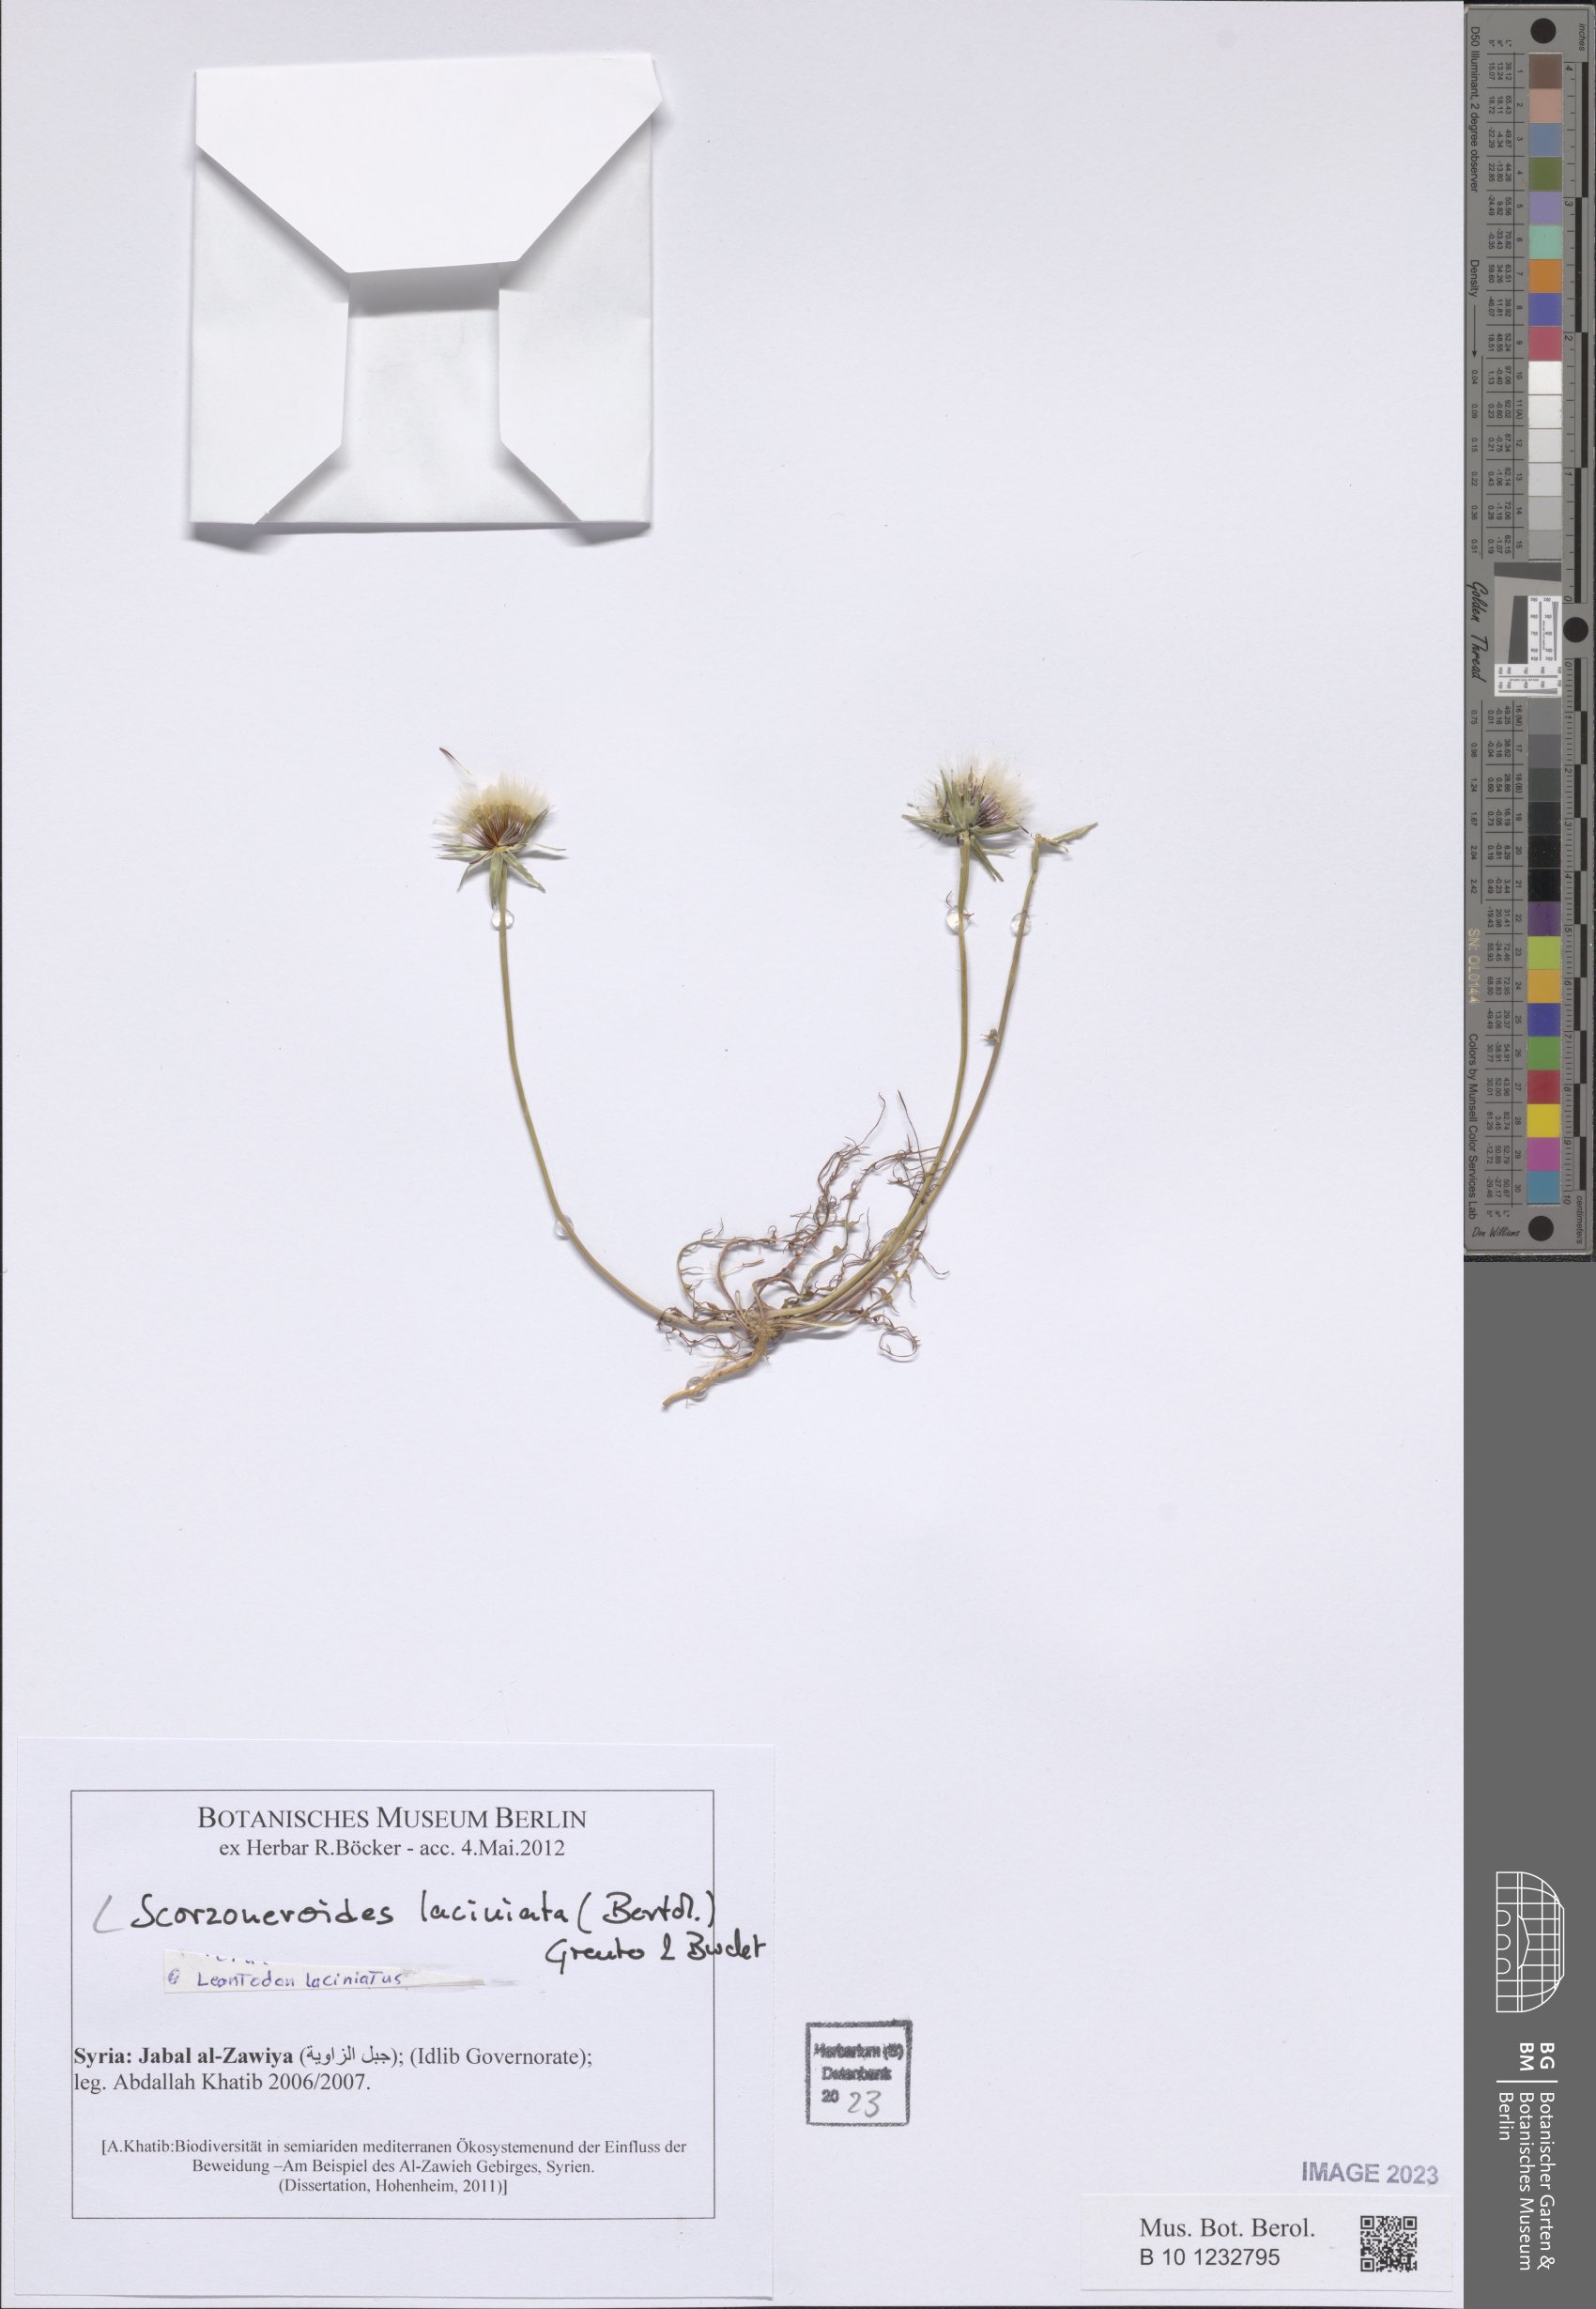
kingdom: Plantae
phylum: Tracheophyta
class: Magnoliopsida
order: Asterales
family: Asteraceae
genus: Scorzoneroides
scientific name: Scorzoneroides laciniata
